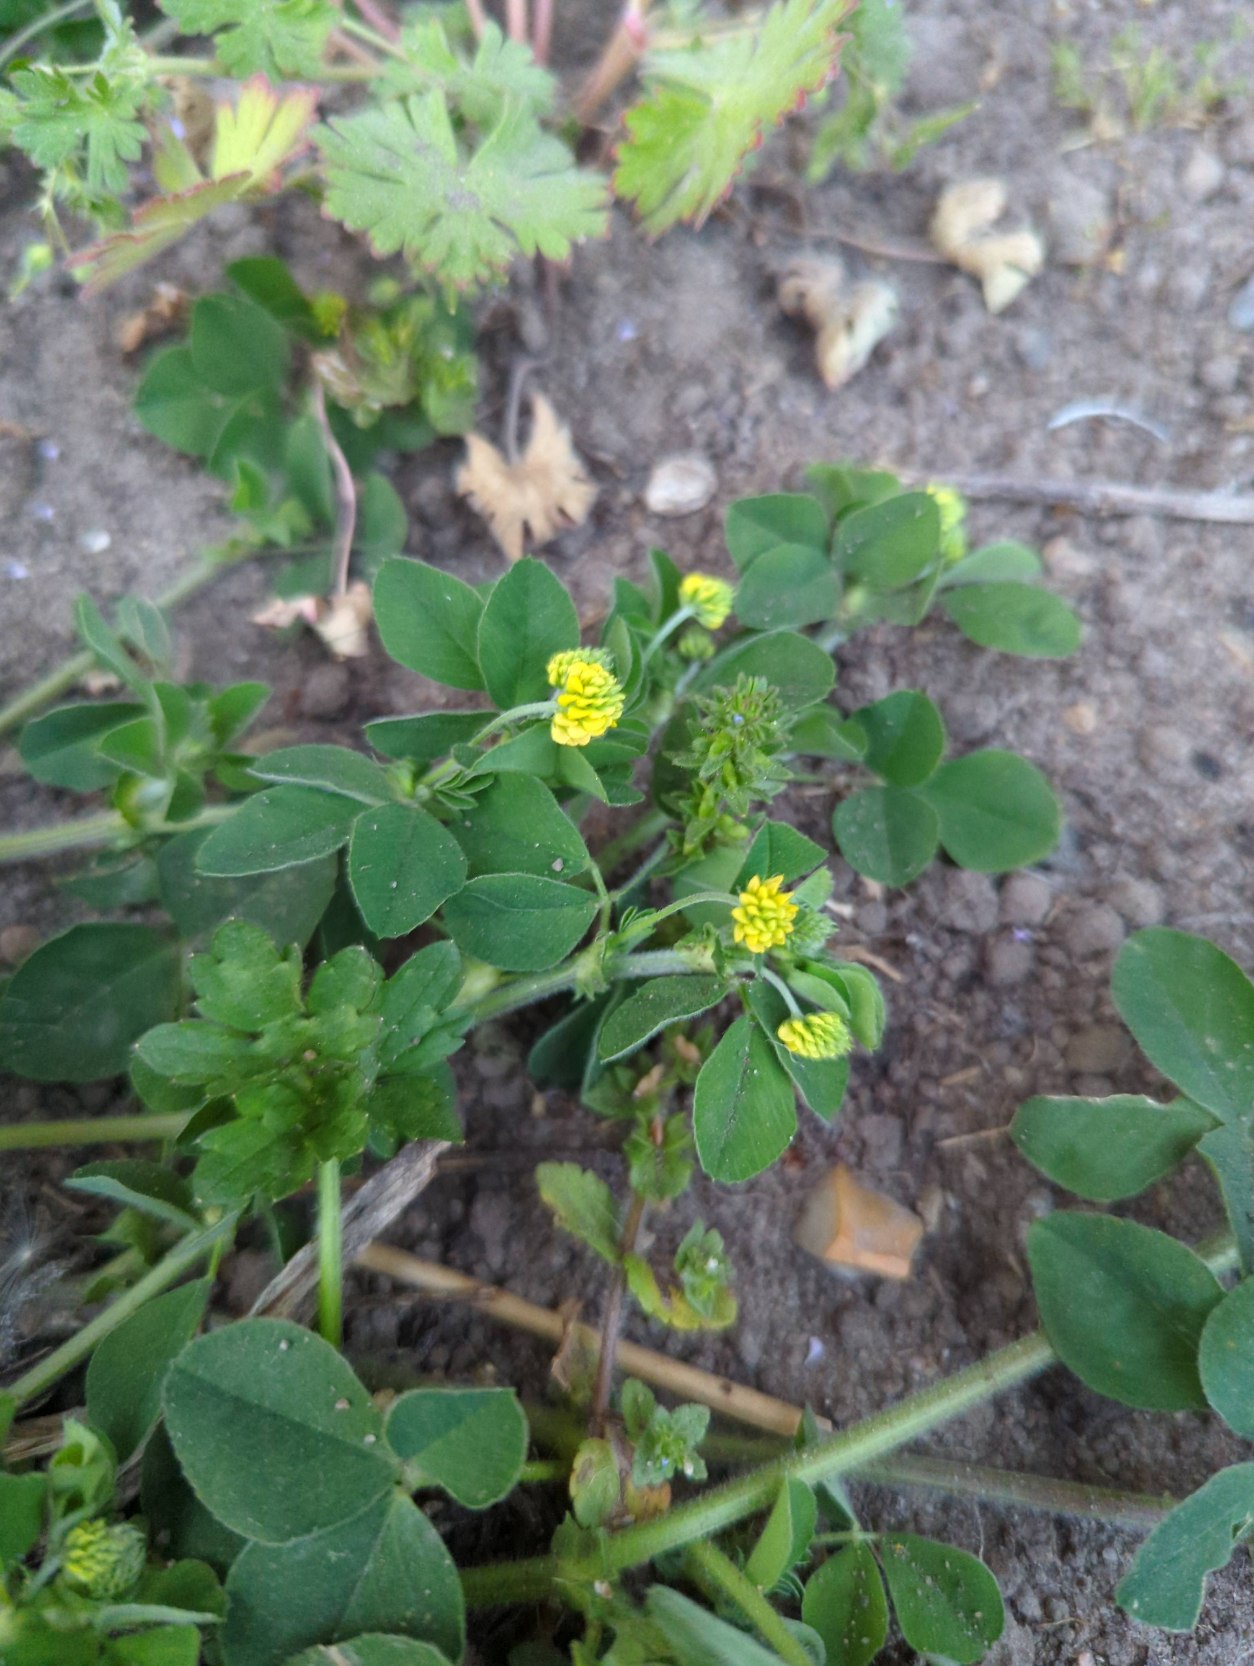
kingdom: Plantae
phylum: Tracheophyta
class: Magnoliopsida
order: Fabales
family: Fabaceae
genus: Medicago
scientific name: Medicago lupulina
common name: Humle-sneglebælg
